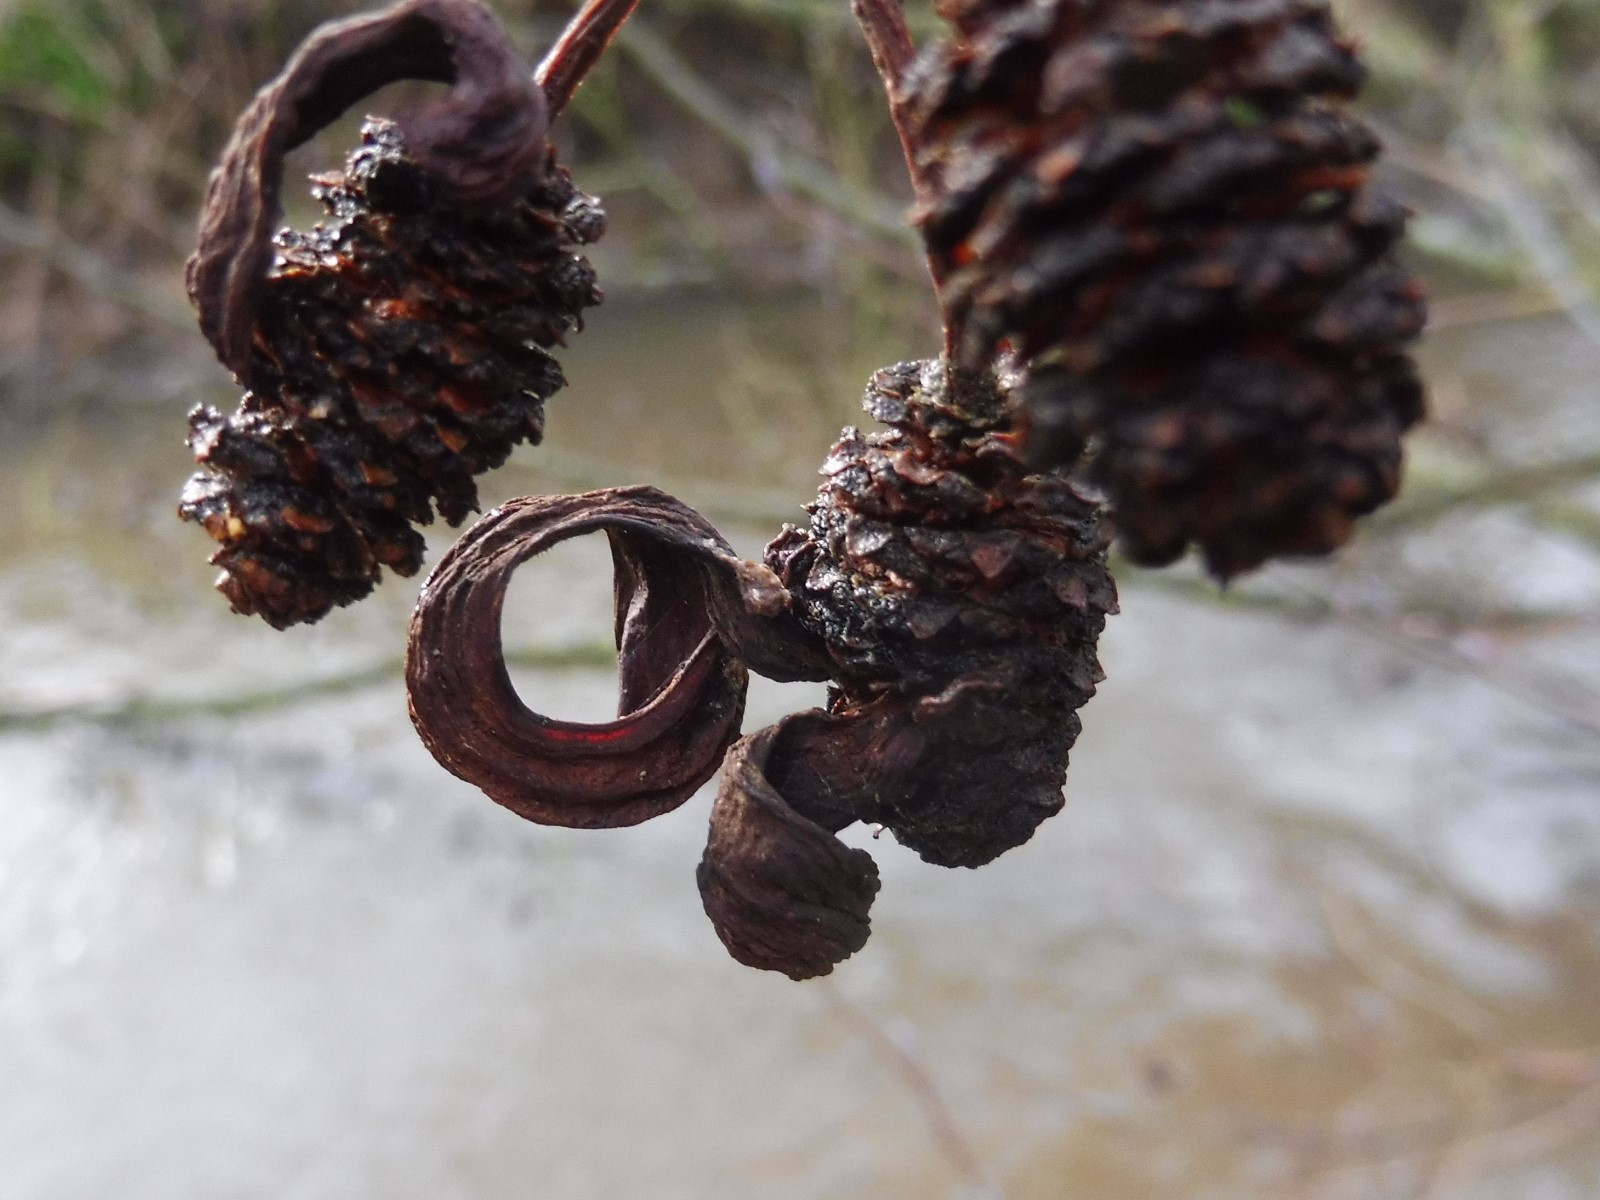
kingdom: Fungi
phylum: Ascomycota
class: Taphrinomycetes
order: Taphrinales
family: Taphrinaceae
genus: Taphrina
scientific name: Taphrina alni
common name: Alder tongue
